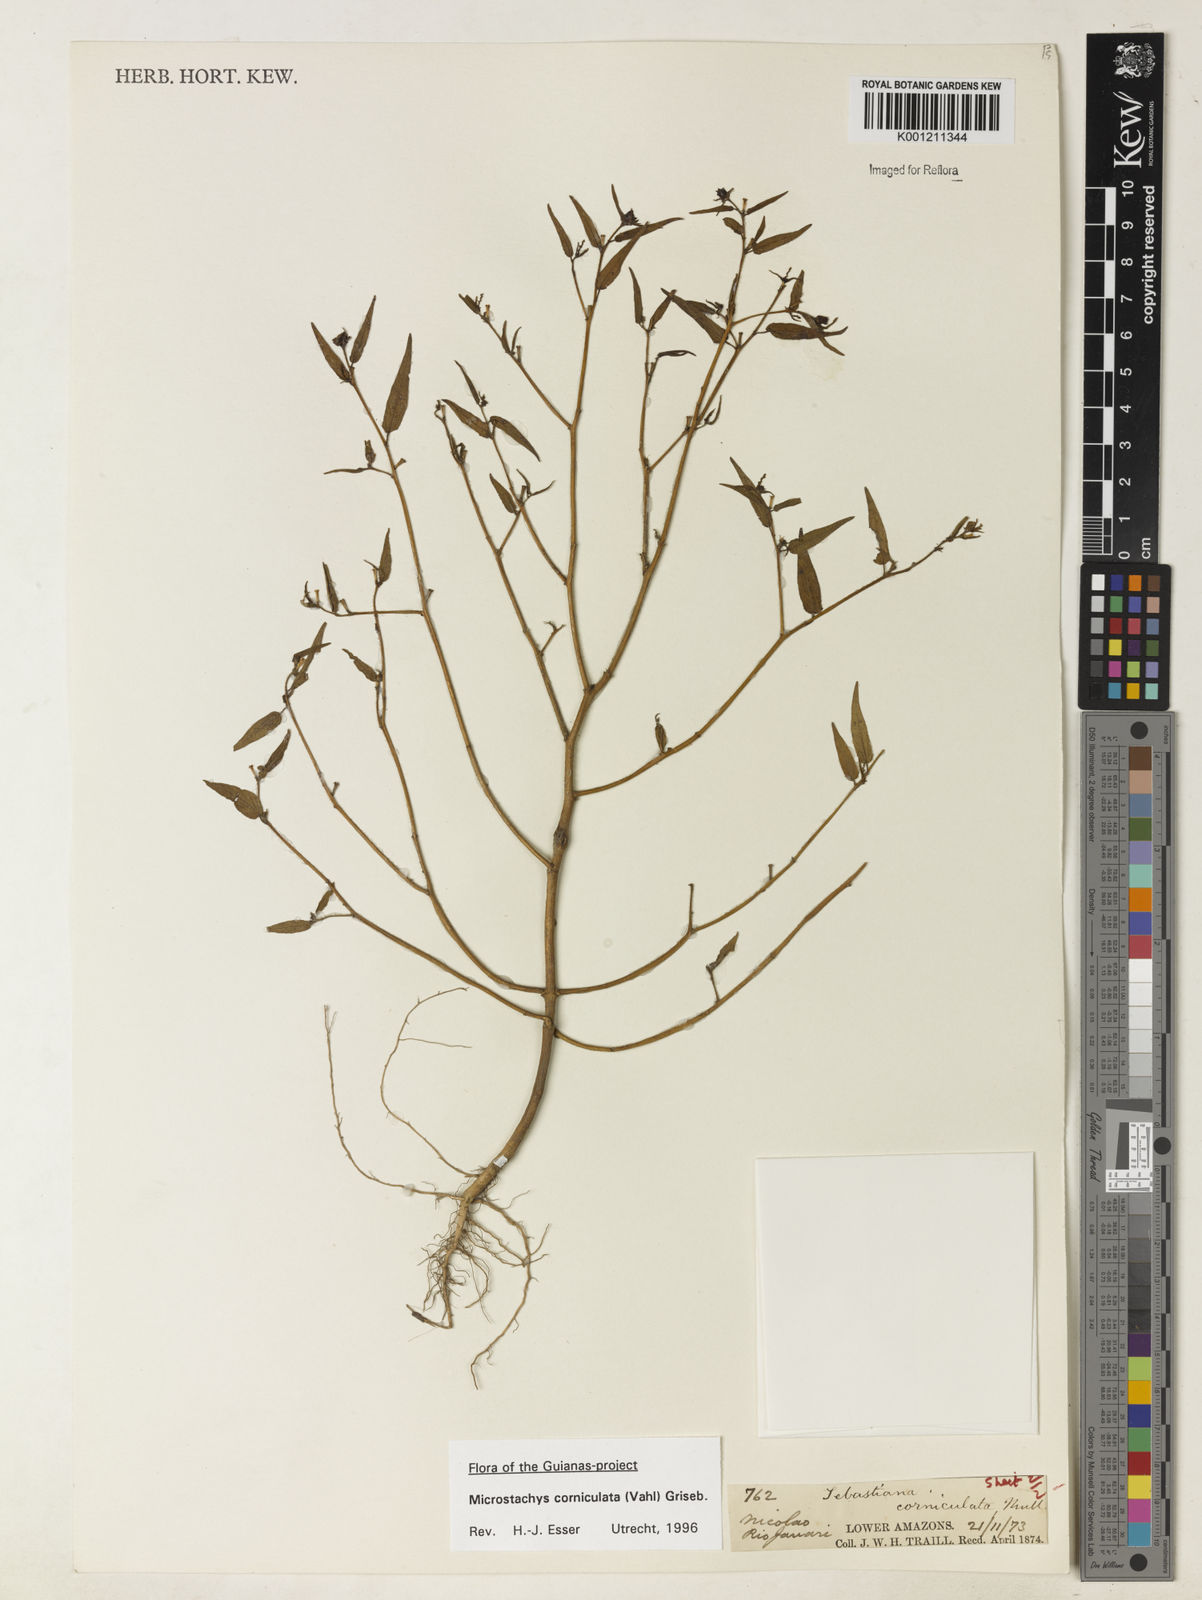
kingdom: Plantae
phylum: Tracheophyta
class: Magnoliopsida
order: Malpighiales
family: Euphorbiaceae
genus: Microstachys
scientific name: Microstachys corniculata
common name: Hato tejas
